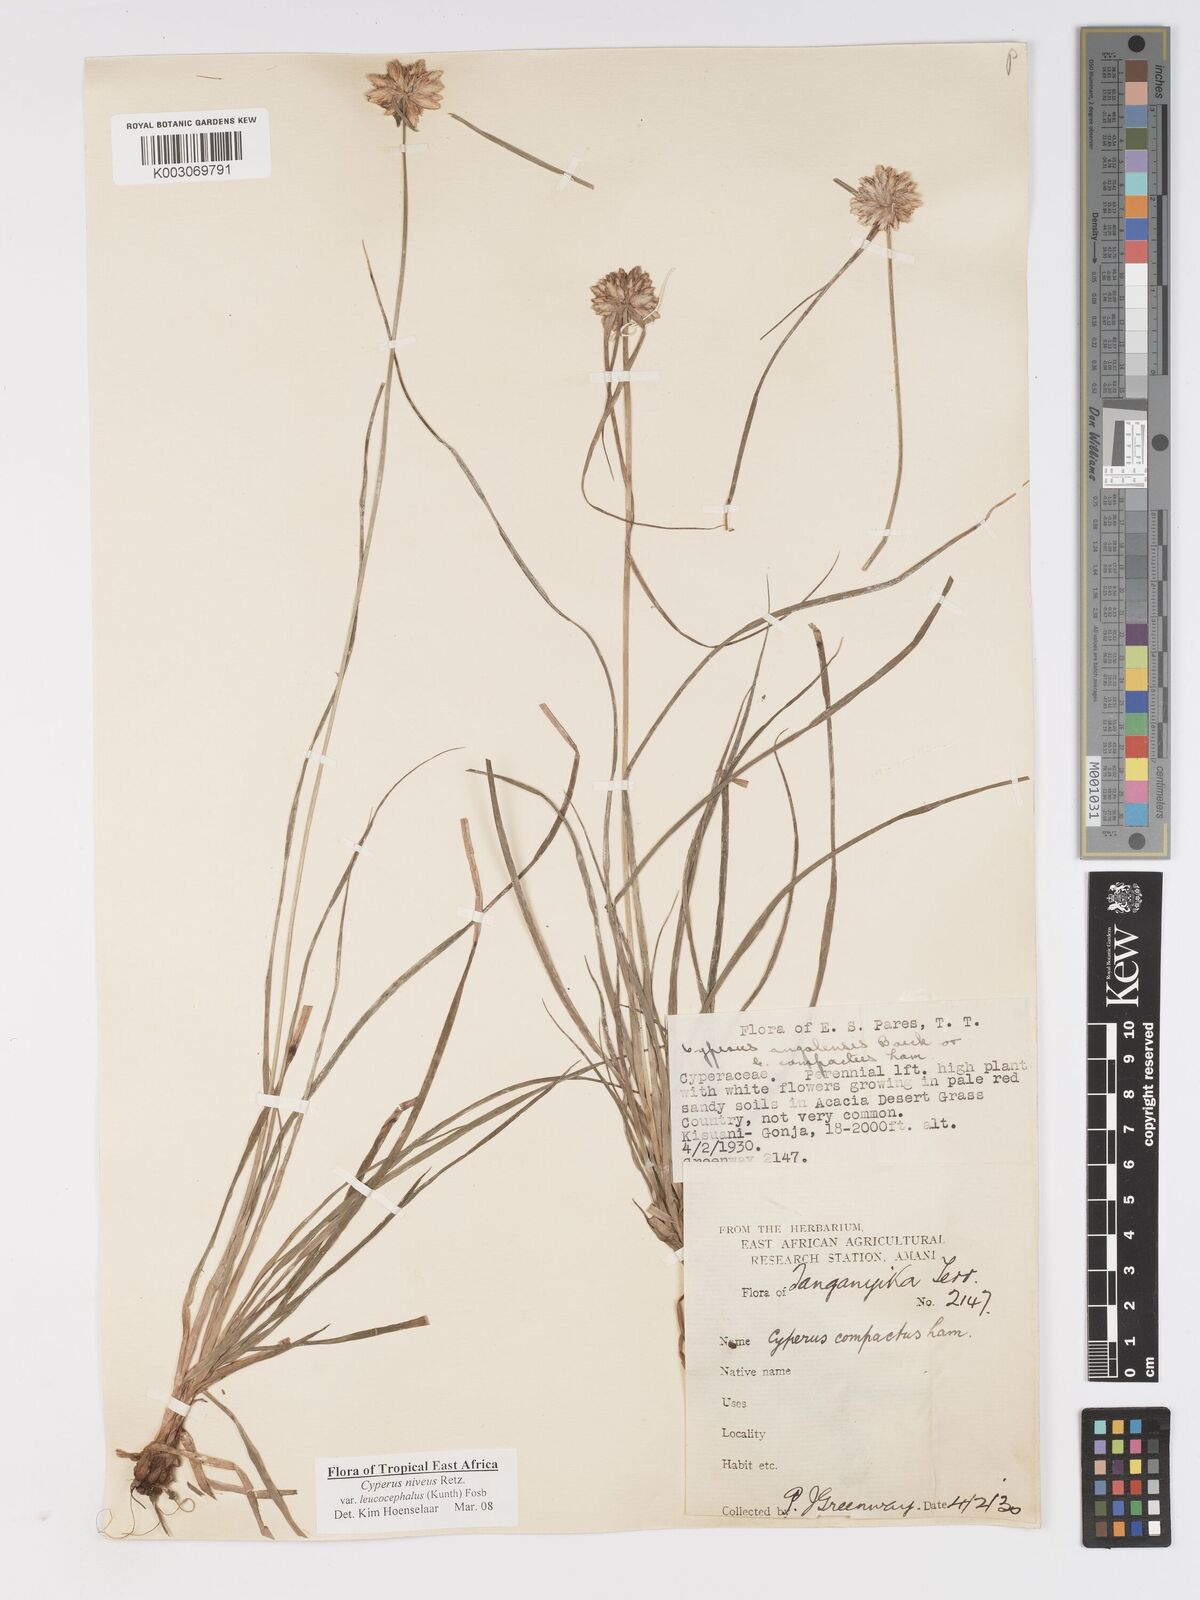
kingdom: Plantae
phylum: Tracheophyta
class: Liliopsida
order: Poales
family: Cyperaceae
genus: Cyperus
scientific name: Cyperus niveus
